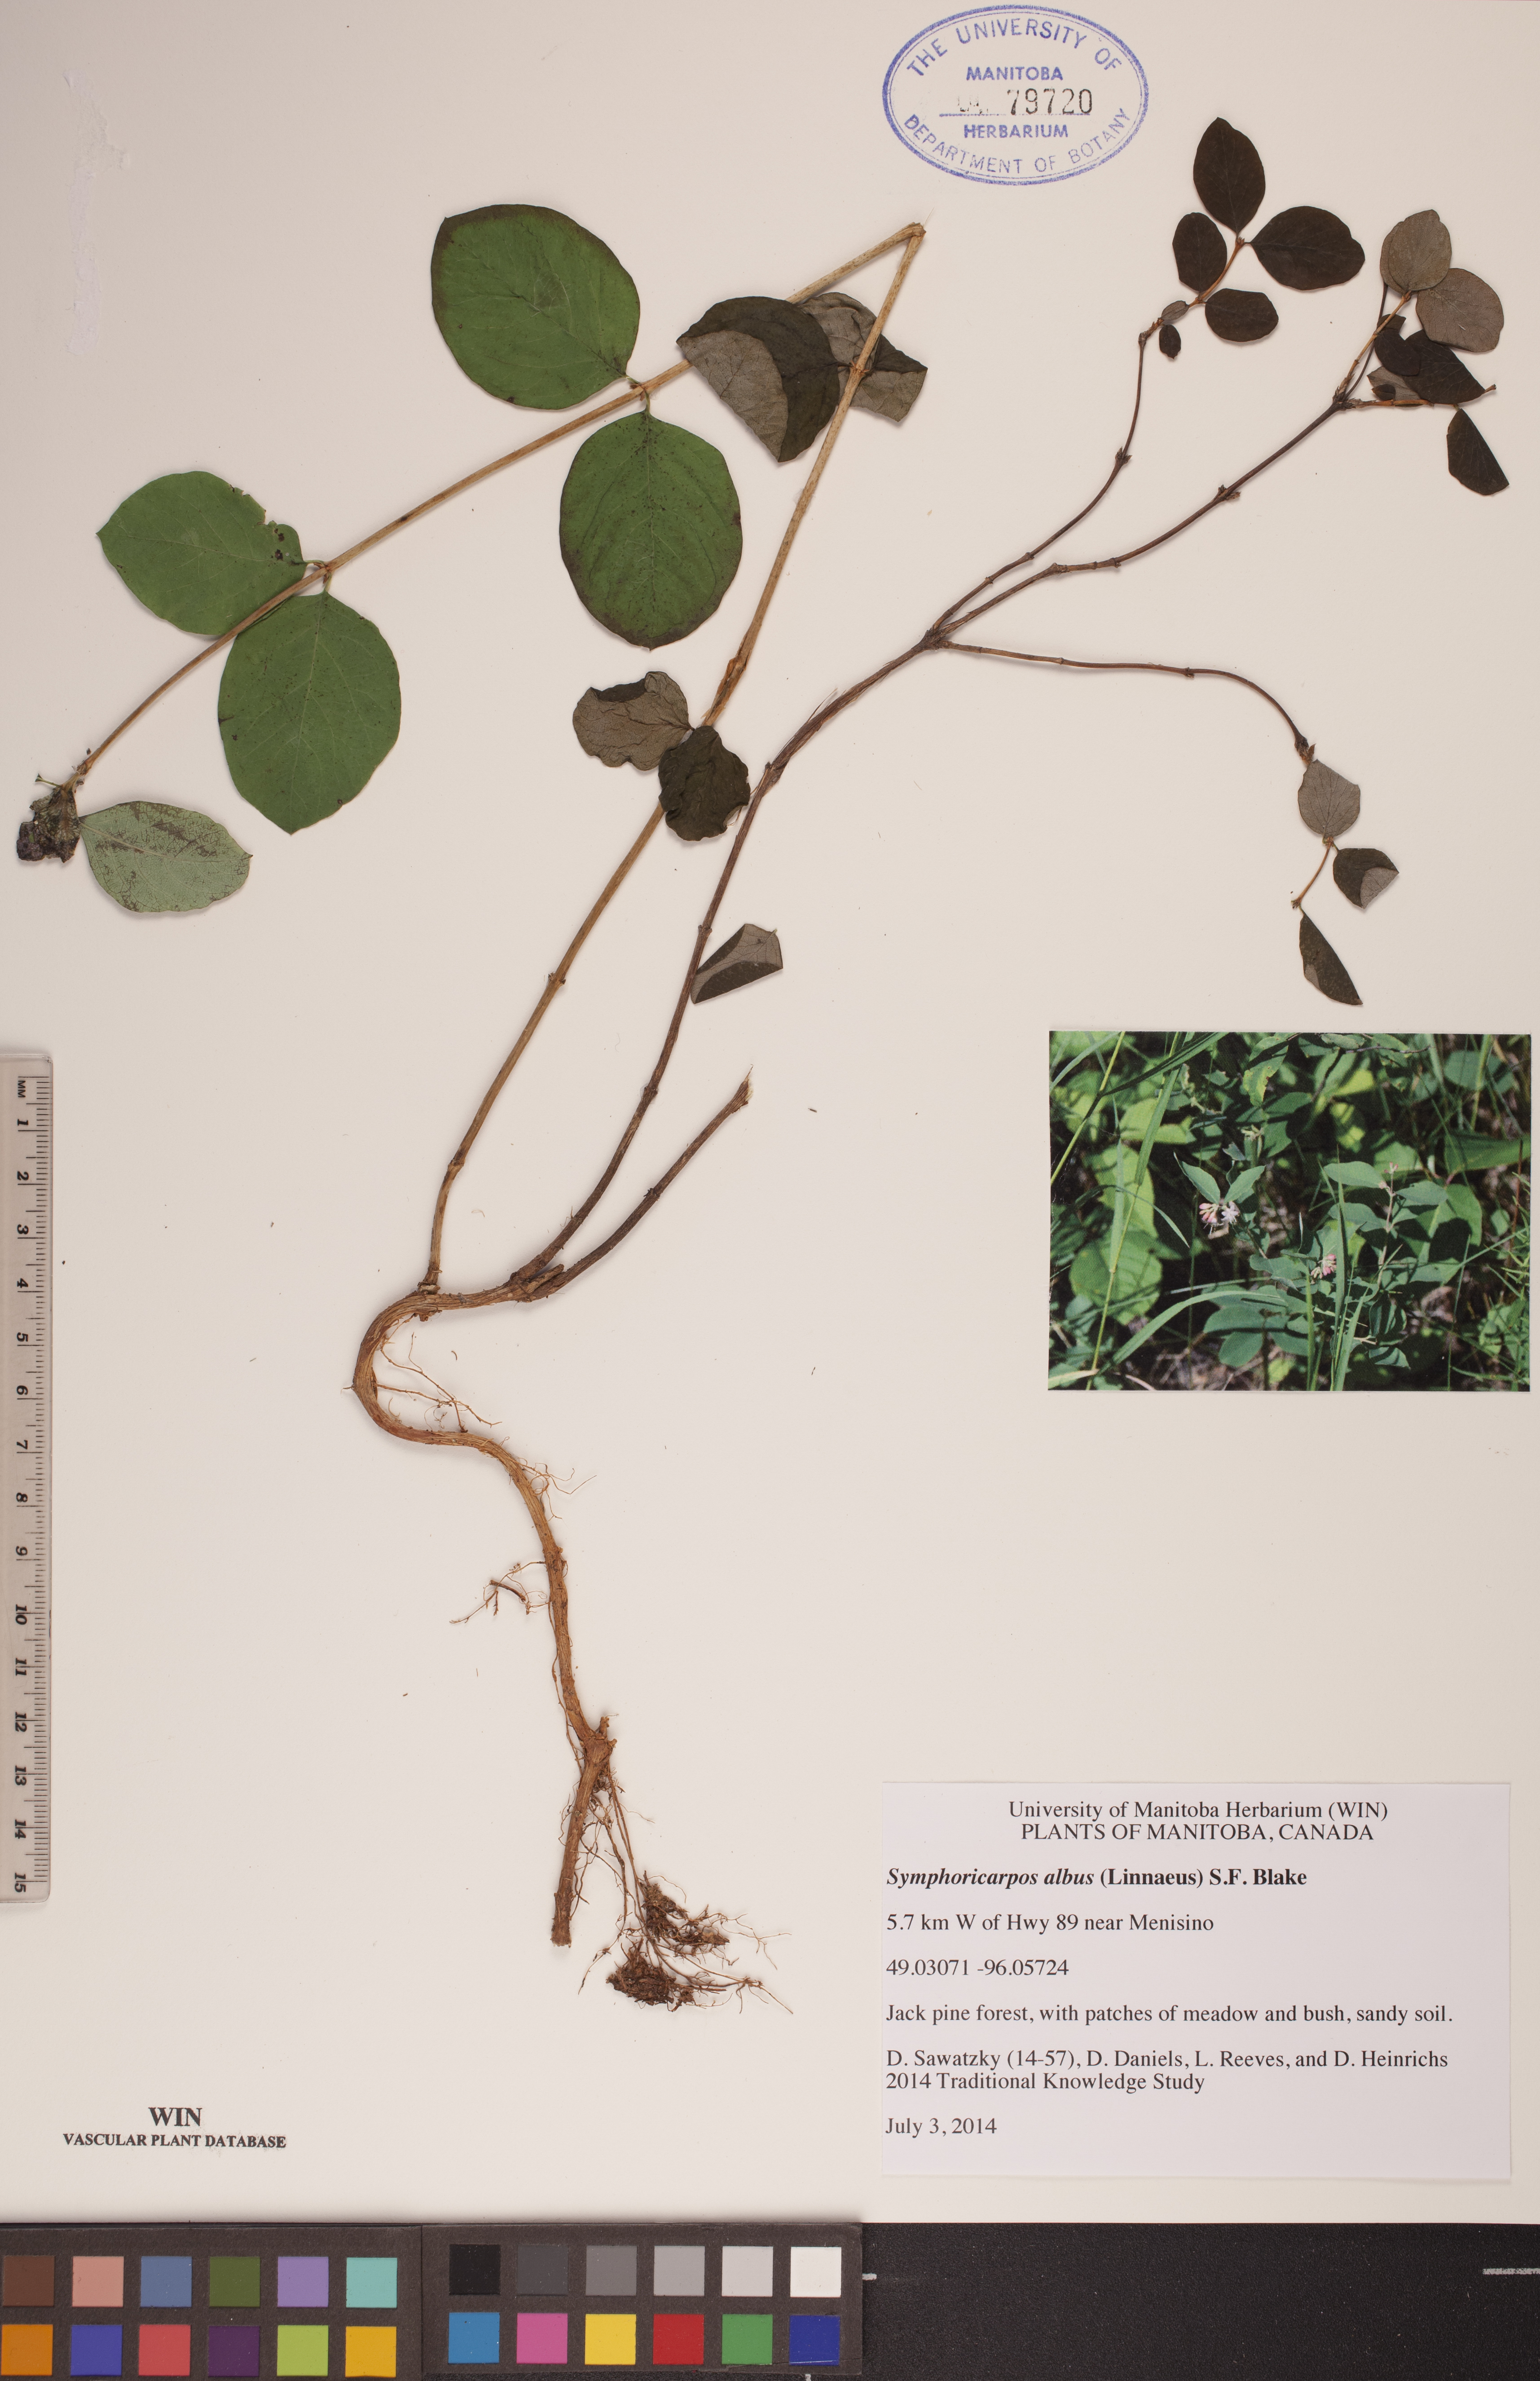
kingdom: Plantae
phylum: Tracheophyta
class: Magnoliopsida
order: Dipsacales
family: Caprifoliaceae
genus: Symphoricarpos
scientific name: Symphoricarpos albus
